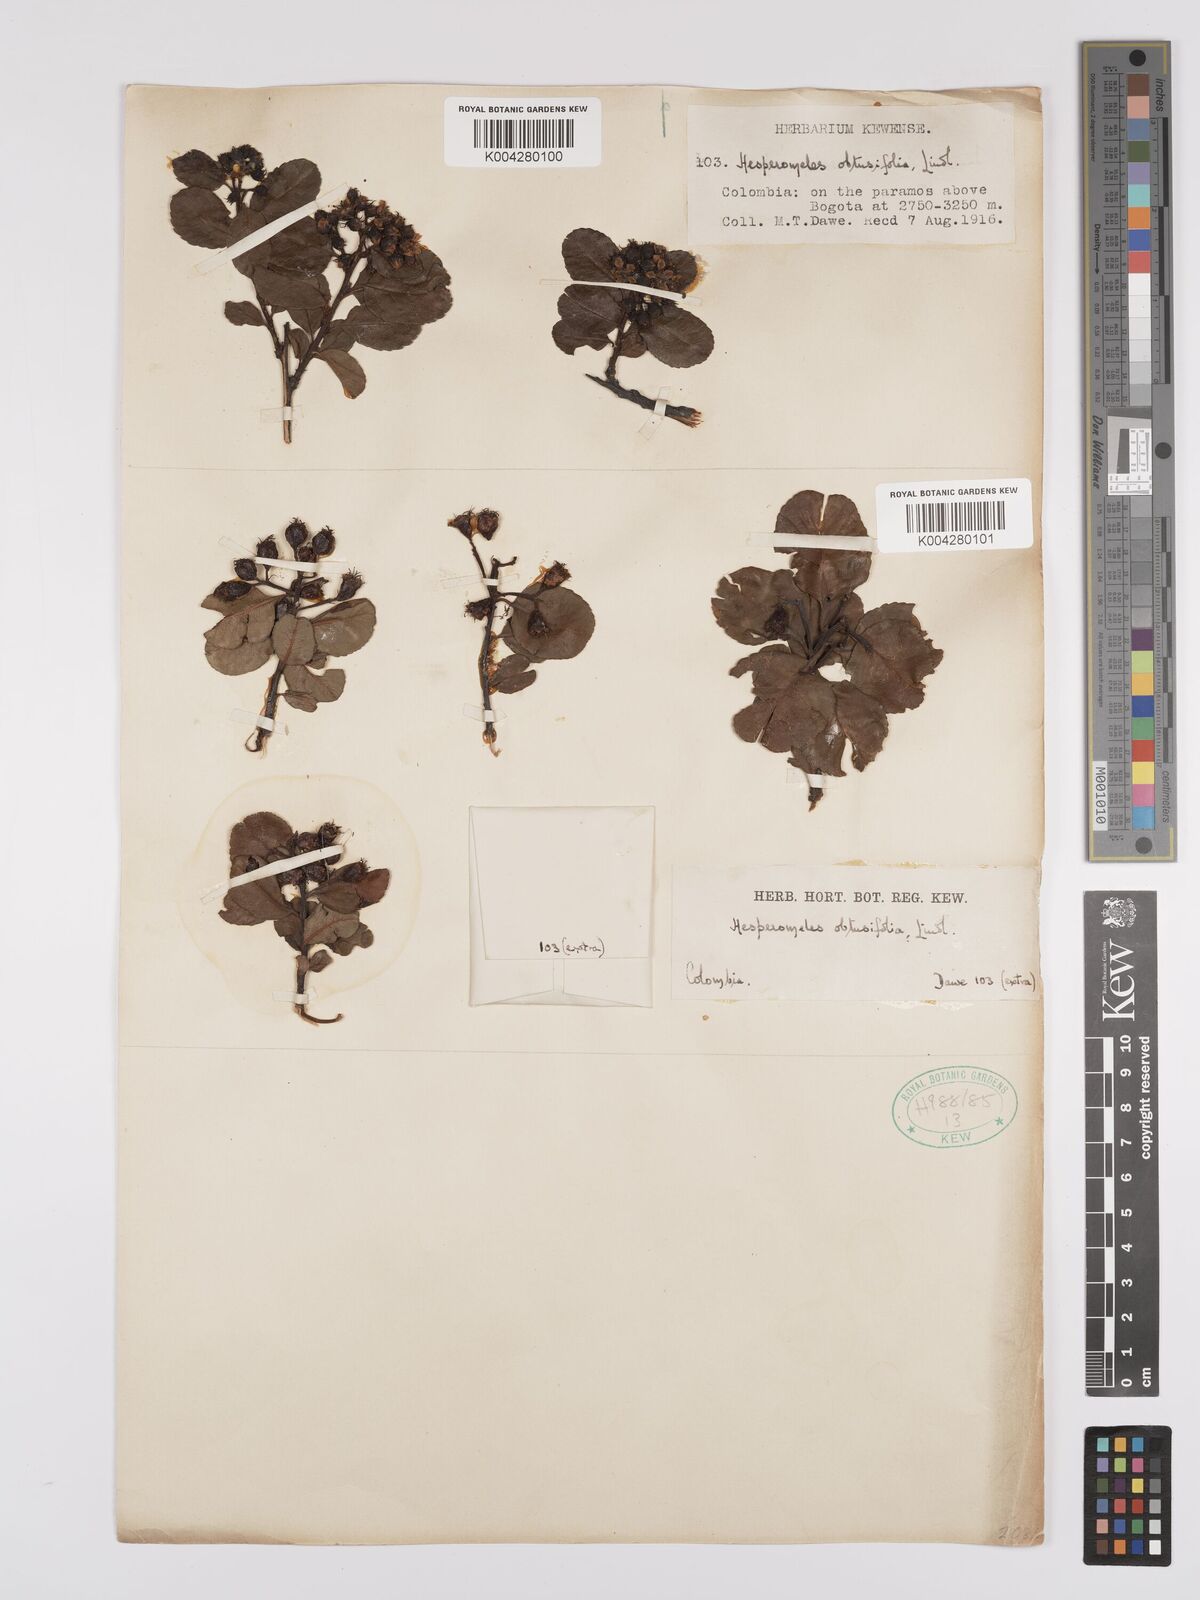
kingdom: Plantae
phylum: Tracheophyta
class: Magnoliopsida
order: Rosales
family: Rosaceae
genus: Hesperomeles
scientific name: Hesperomeles obtusifolia
